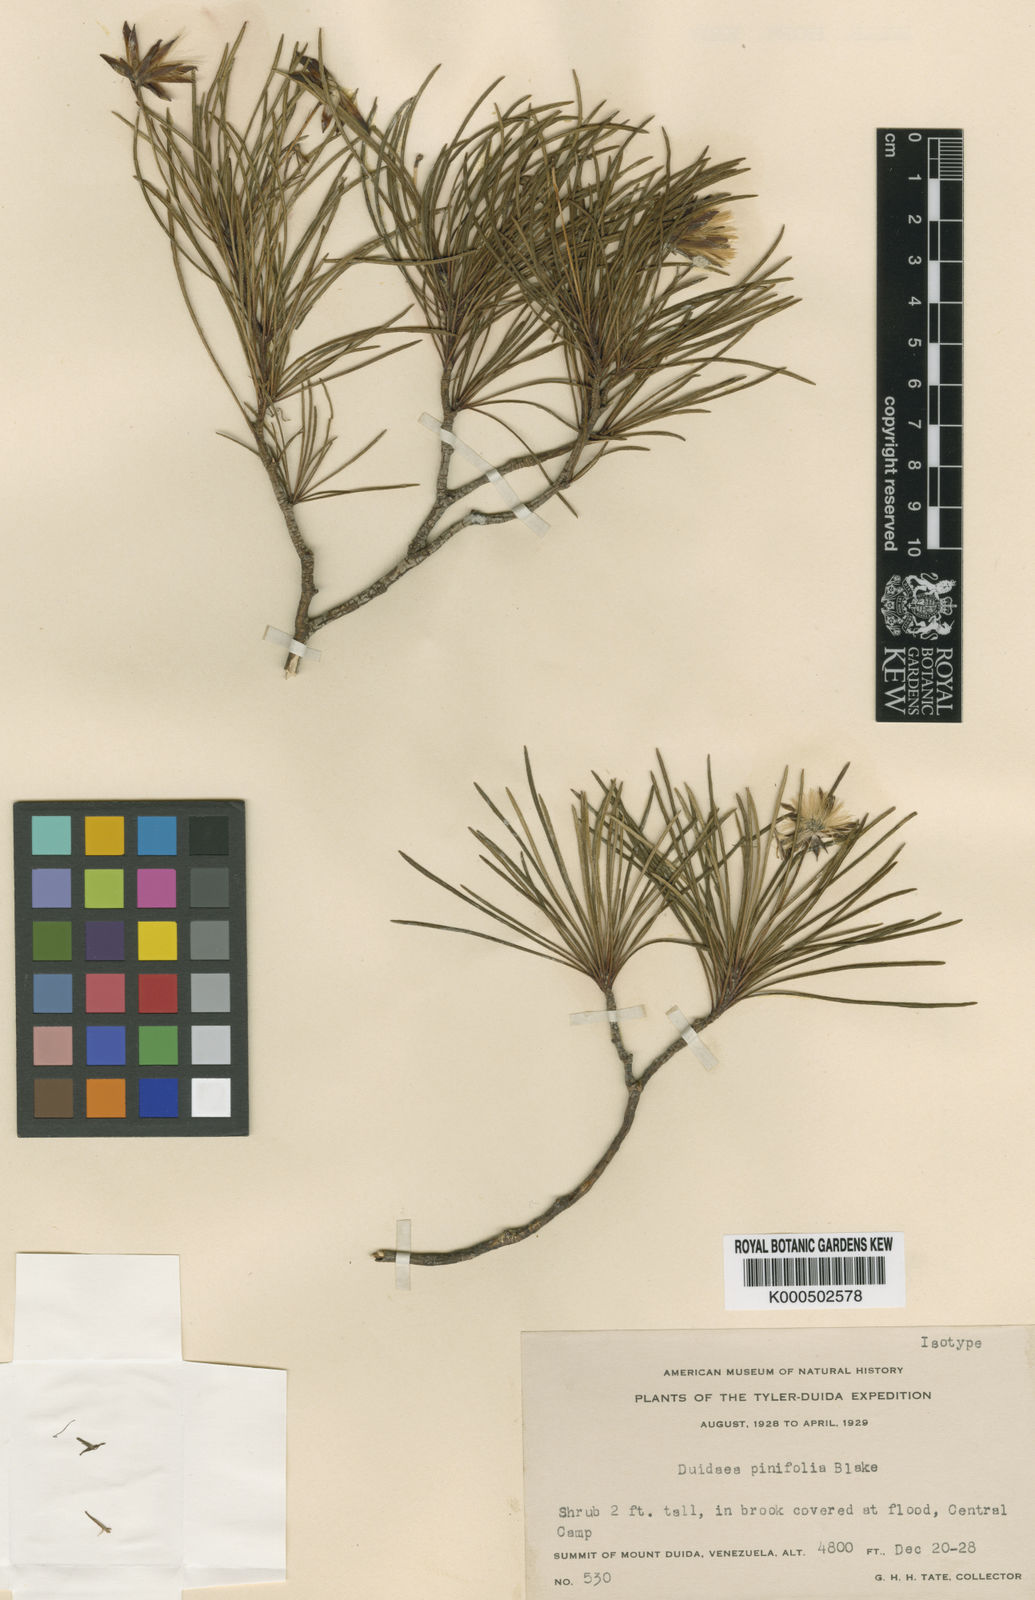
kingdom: Plantae
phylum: Tracheophyta
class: Magnoliopsida
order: Asterales
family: Asteraceae
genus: Duidaea
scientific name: Duidaea pinifolia
